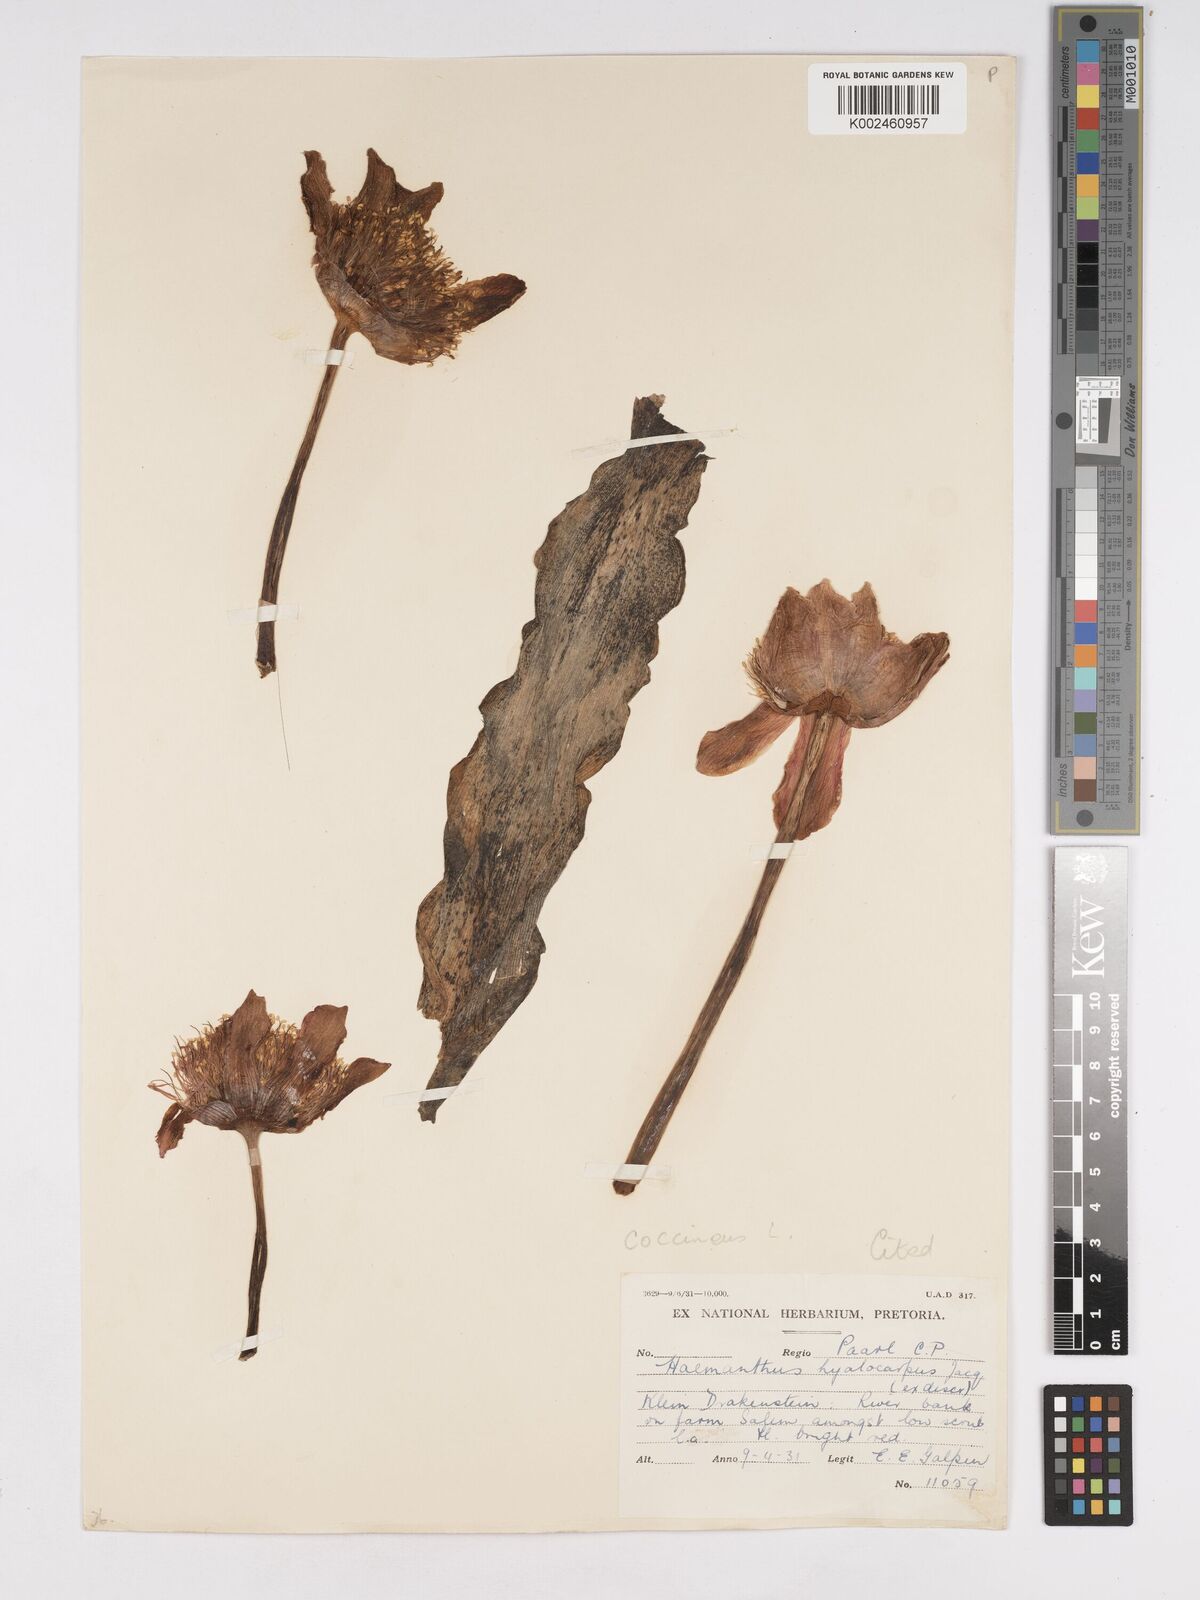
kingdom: Plantae
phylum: Tracheophyta
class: Liliopsida
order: Asparagales
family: Amaryllidaceae
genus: Haemanthus
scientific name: Haemanthus coccineus
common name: Cape-tulip
